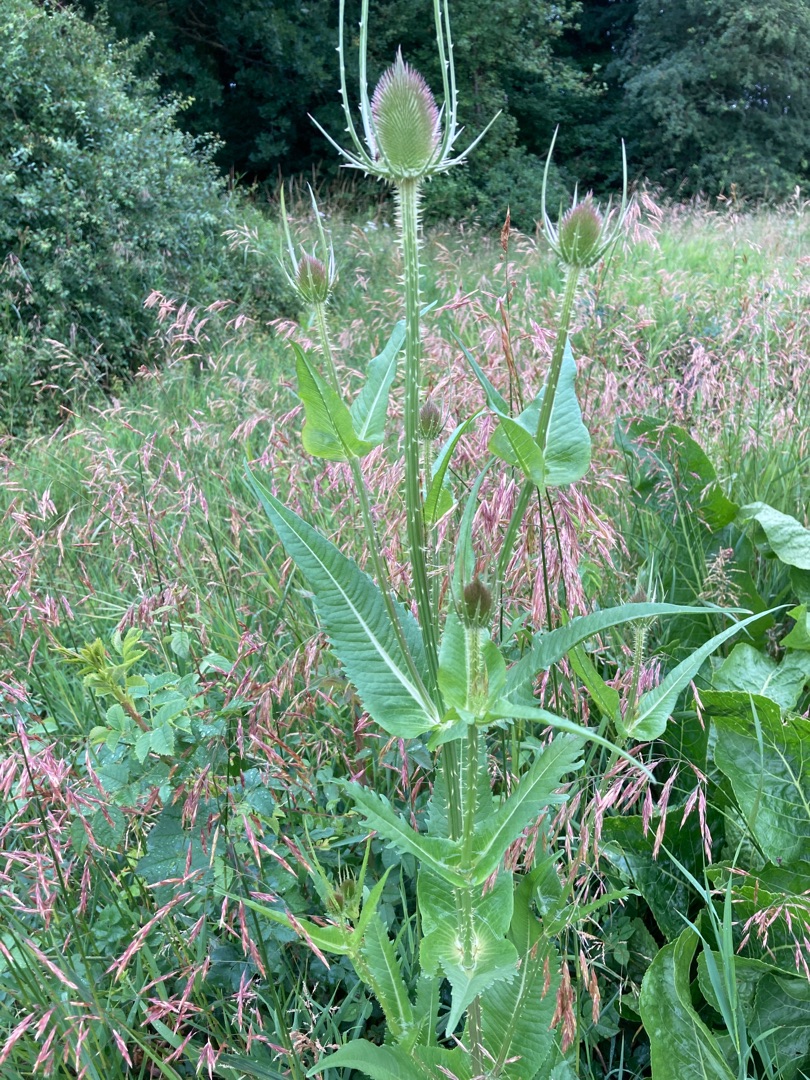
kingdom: Plantae
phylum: Tracheophyta
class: Magnoliopsida
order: Dipsacales
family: Caprifoliaceae
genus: Dipsacus
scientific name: Dipsacus fullonum
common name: Gærde-kartebolle
